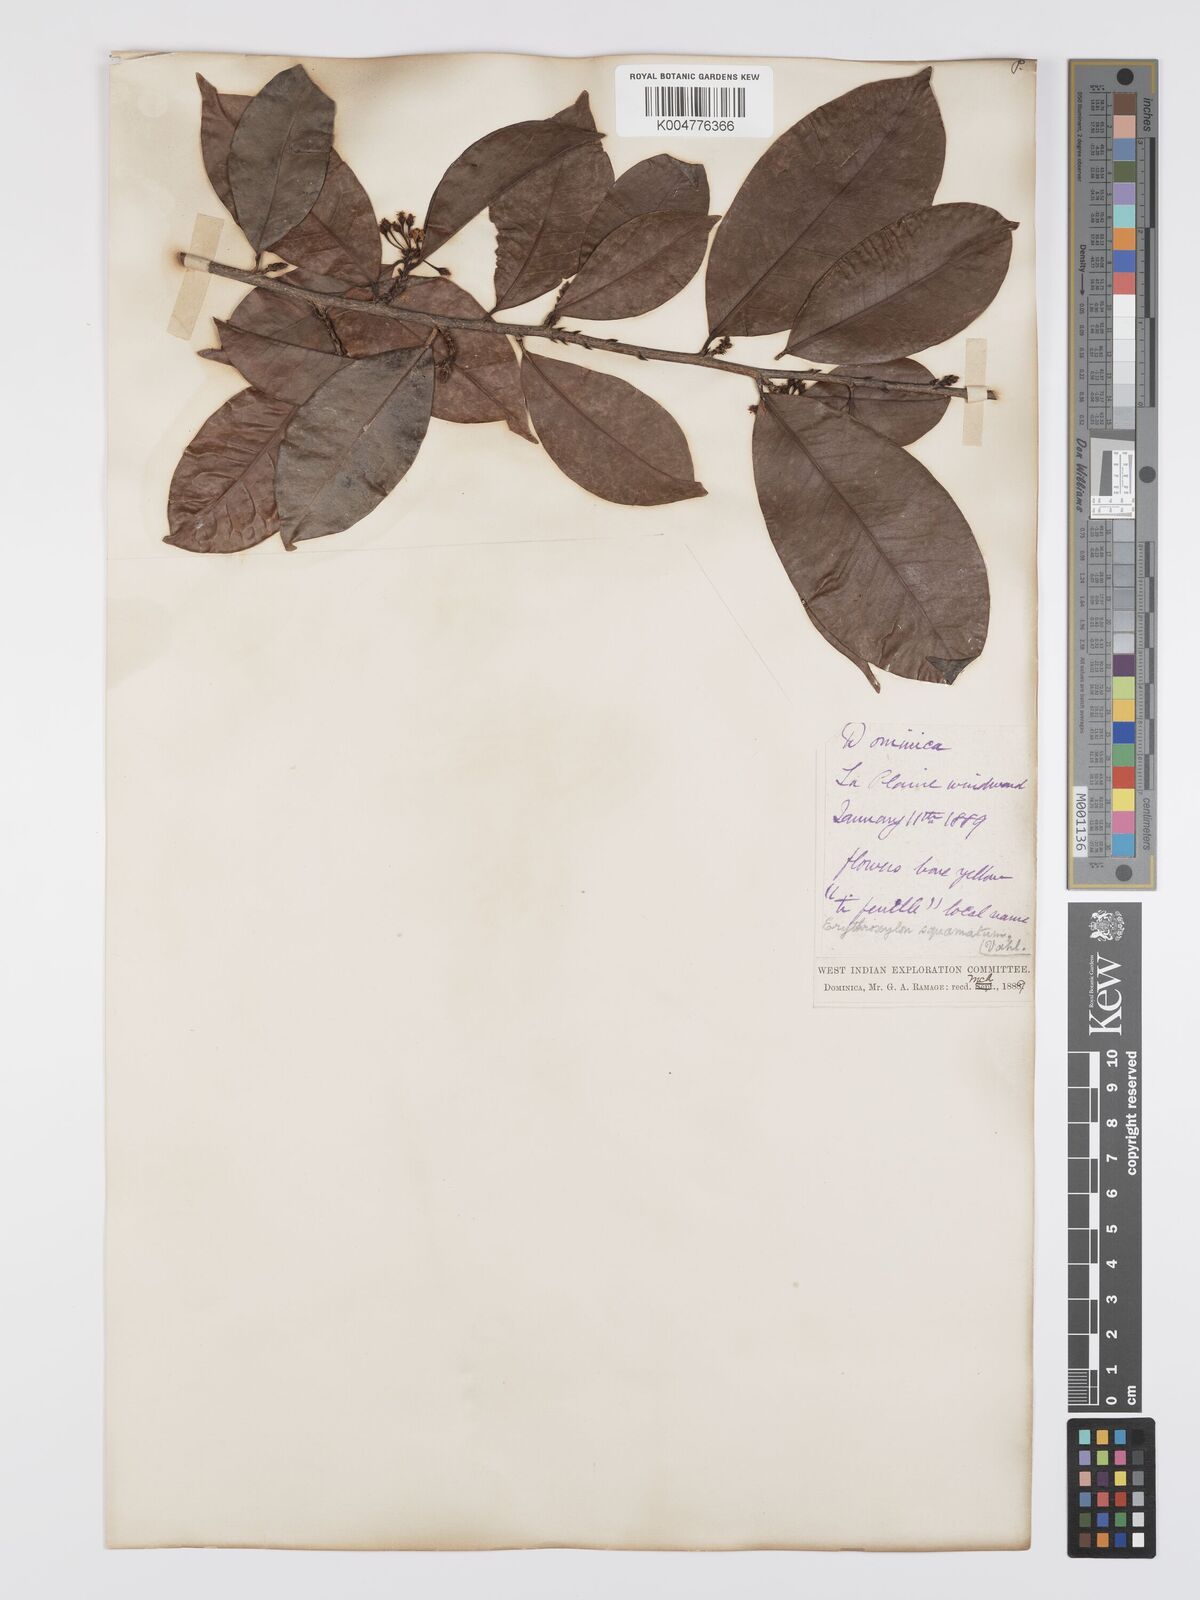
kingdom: Plantae
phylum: Tracheophyta
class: Magnoliopsida
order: Malpighiales
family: Erythroxylaceae
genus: Erythroxylum
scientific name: Erythroxylum squamatum
